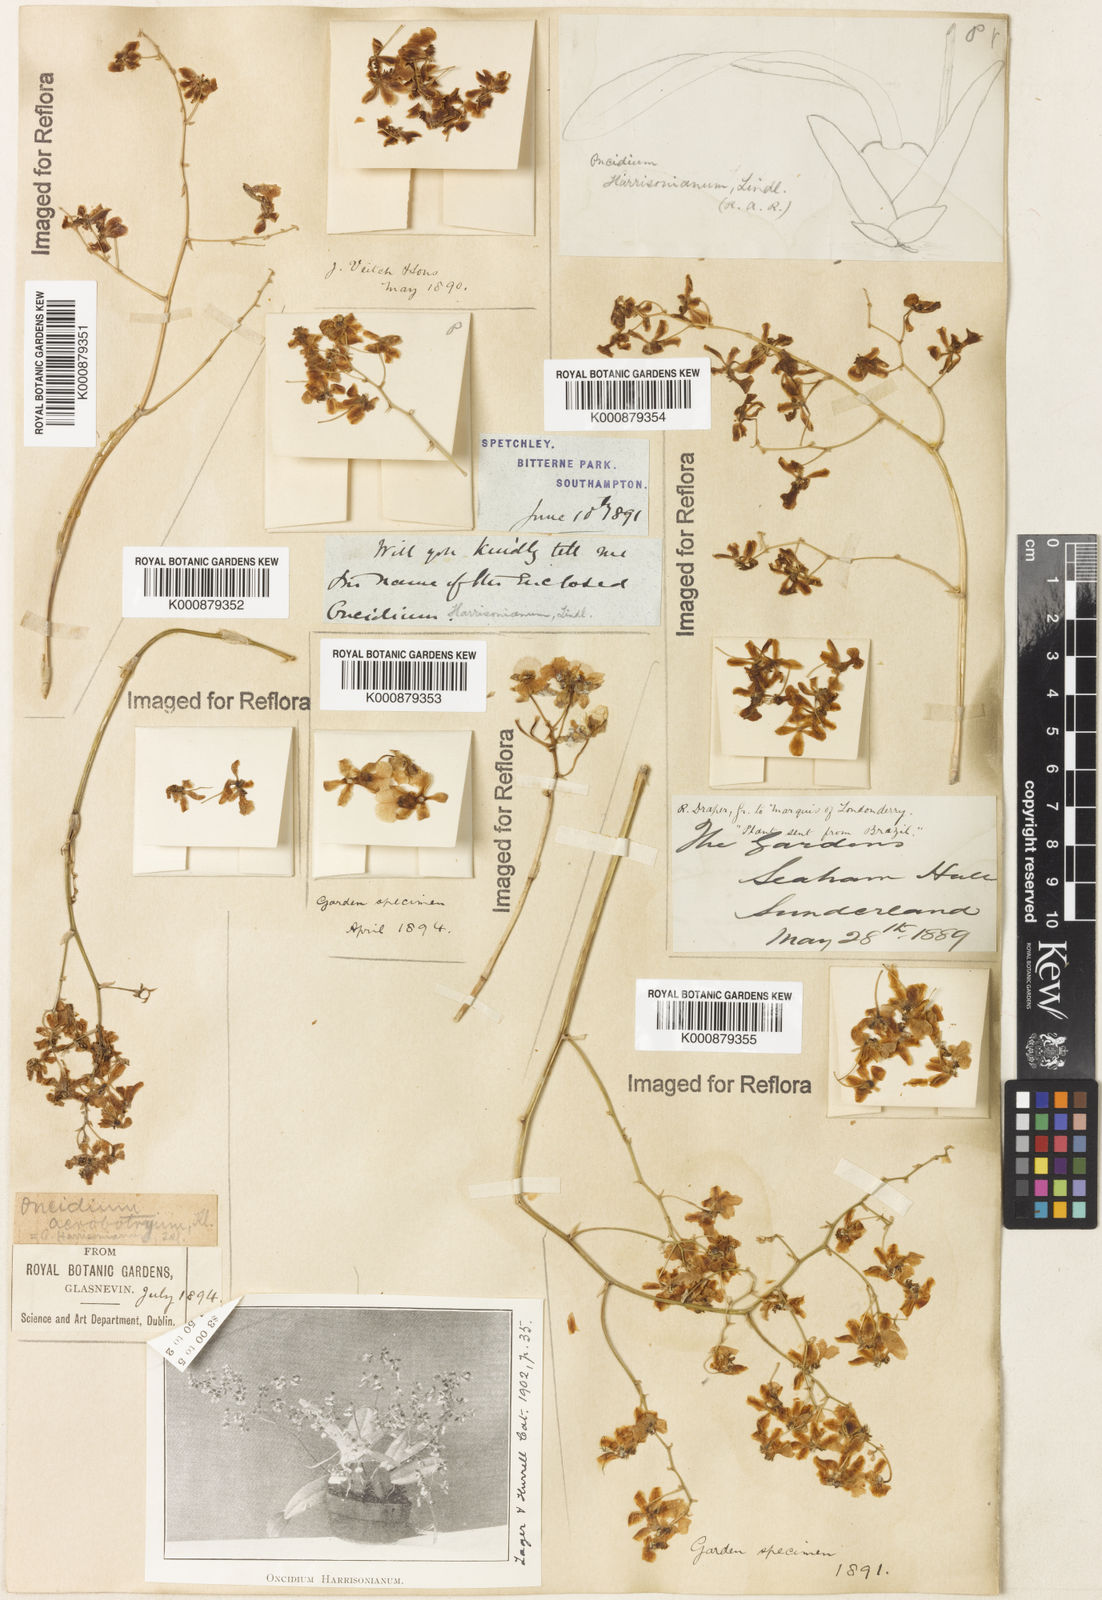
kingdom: Plantae
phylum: Tracheophyta
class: Liliopsida
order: Asparagales
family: Orchidaceae
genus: Grandiphyllum
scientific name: Grandiphyllum auricula
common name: Mule-ear orchid
